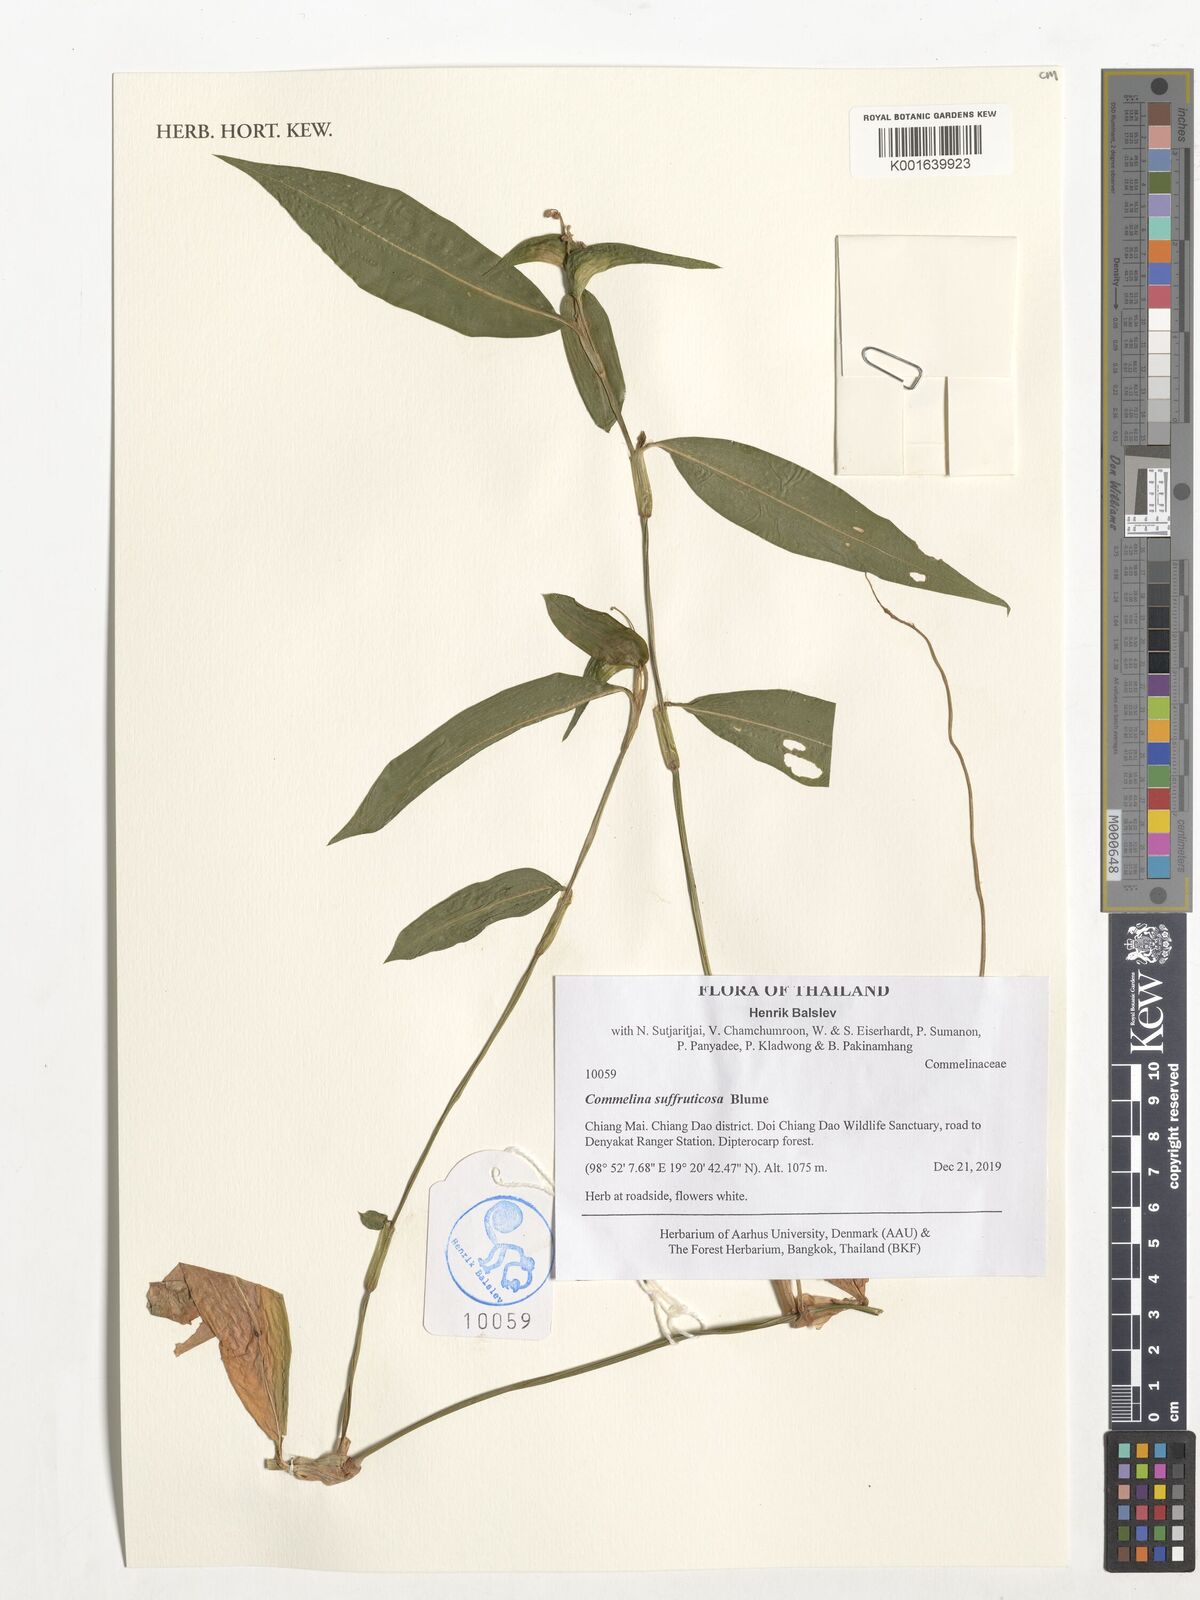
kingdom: Plantae
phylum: Tracheophyta
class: Liliopsida
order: Commelinales
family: Commelinaceae
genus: Commelina
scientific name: Commelina suffruticosa
